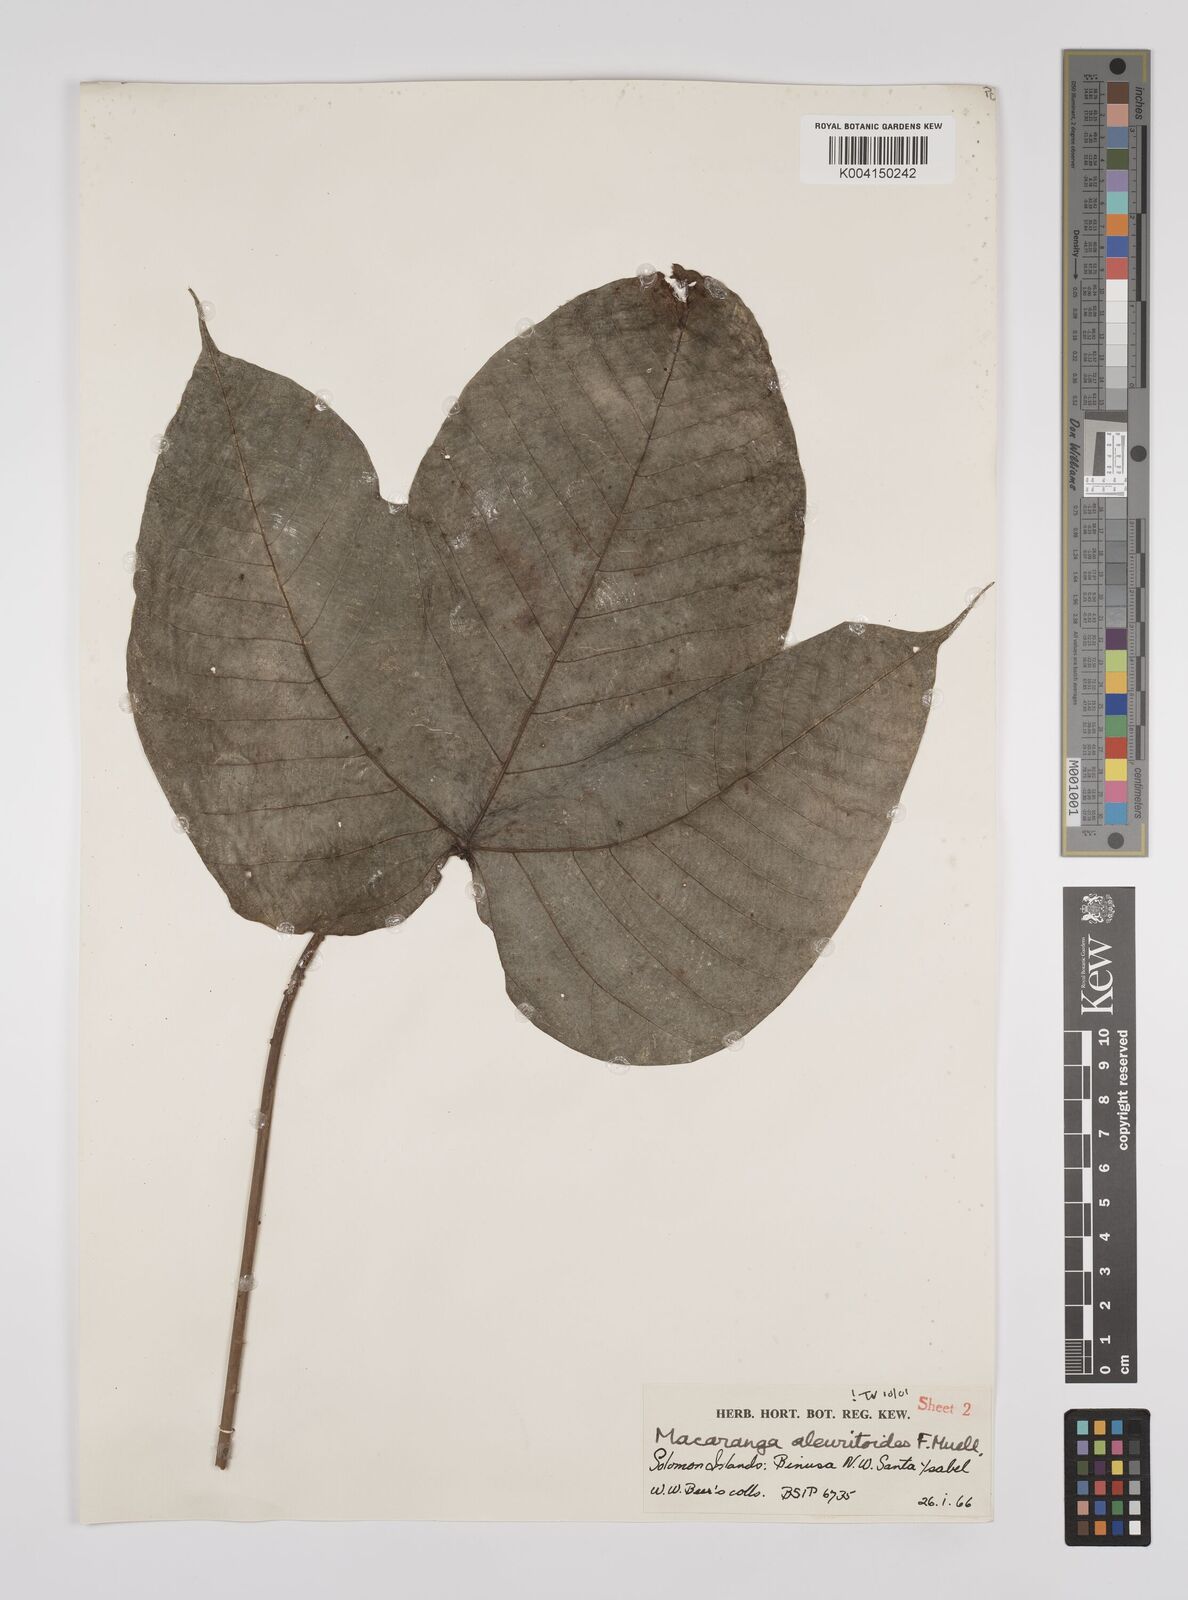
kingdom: Plantae
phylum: Tracheophyta
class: Magnoliopsida
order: Malpighiales
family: Euphorbiaceae
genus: Macaranga
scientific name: Macaranga aleuritoides
